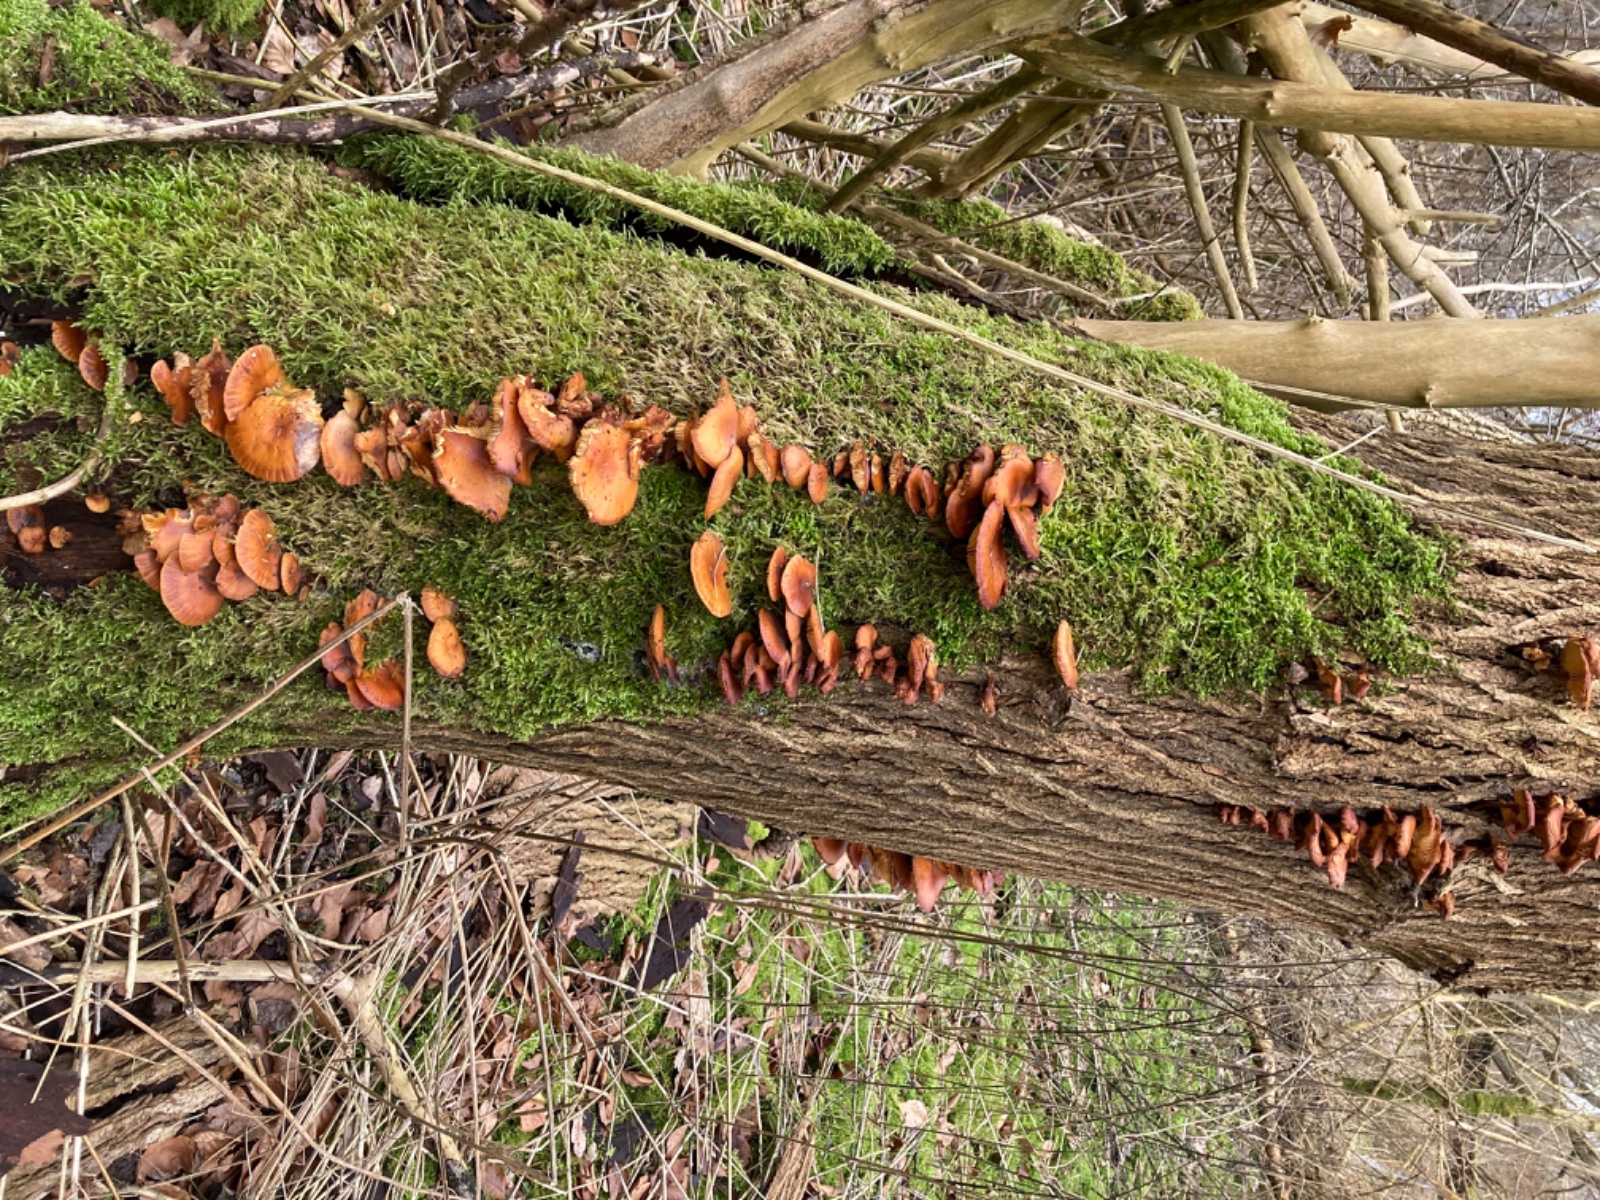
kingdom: Fungi
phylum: Basidiomycota
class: Agaricomycetes
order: Agaricales
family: Physalacriaceae
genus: Flammulina
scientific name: Flammulina velutipes
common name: gul fløjlsfod
